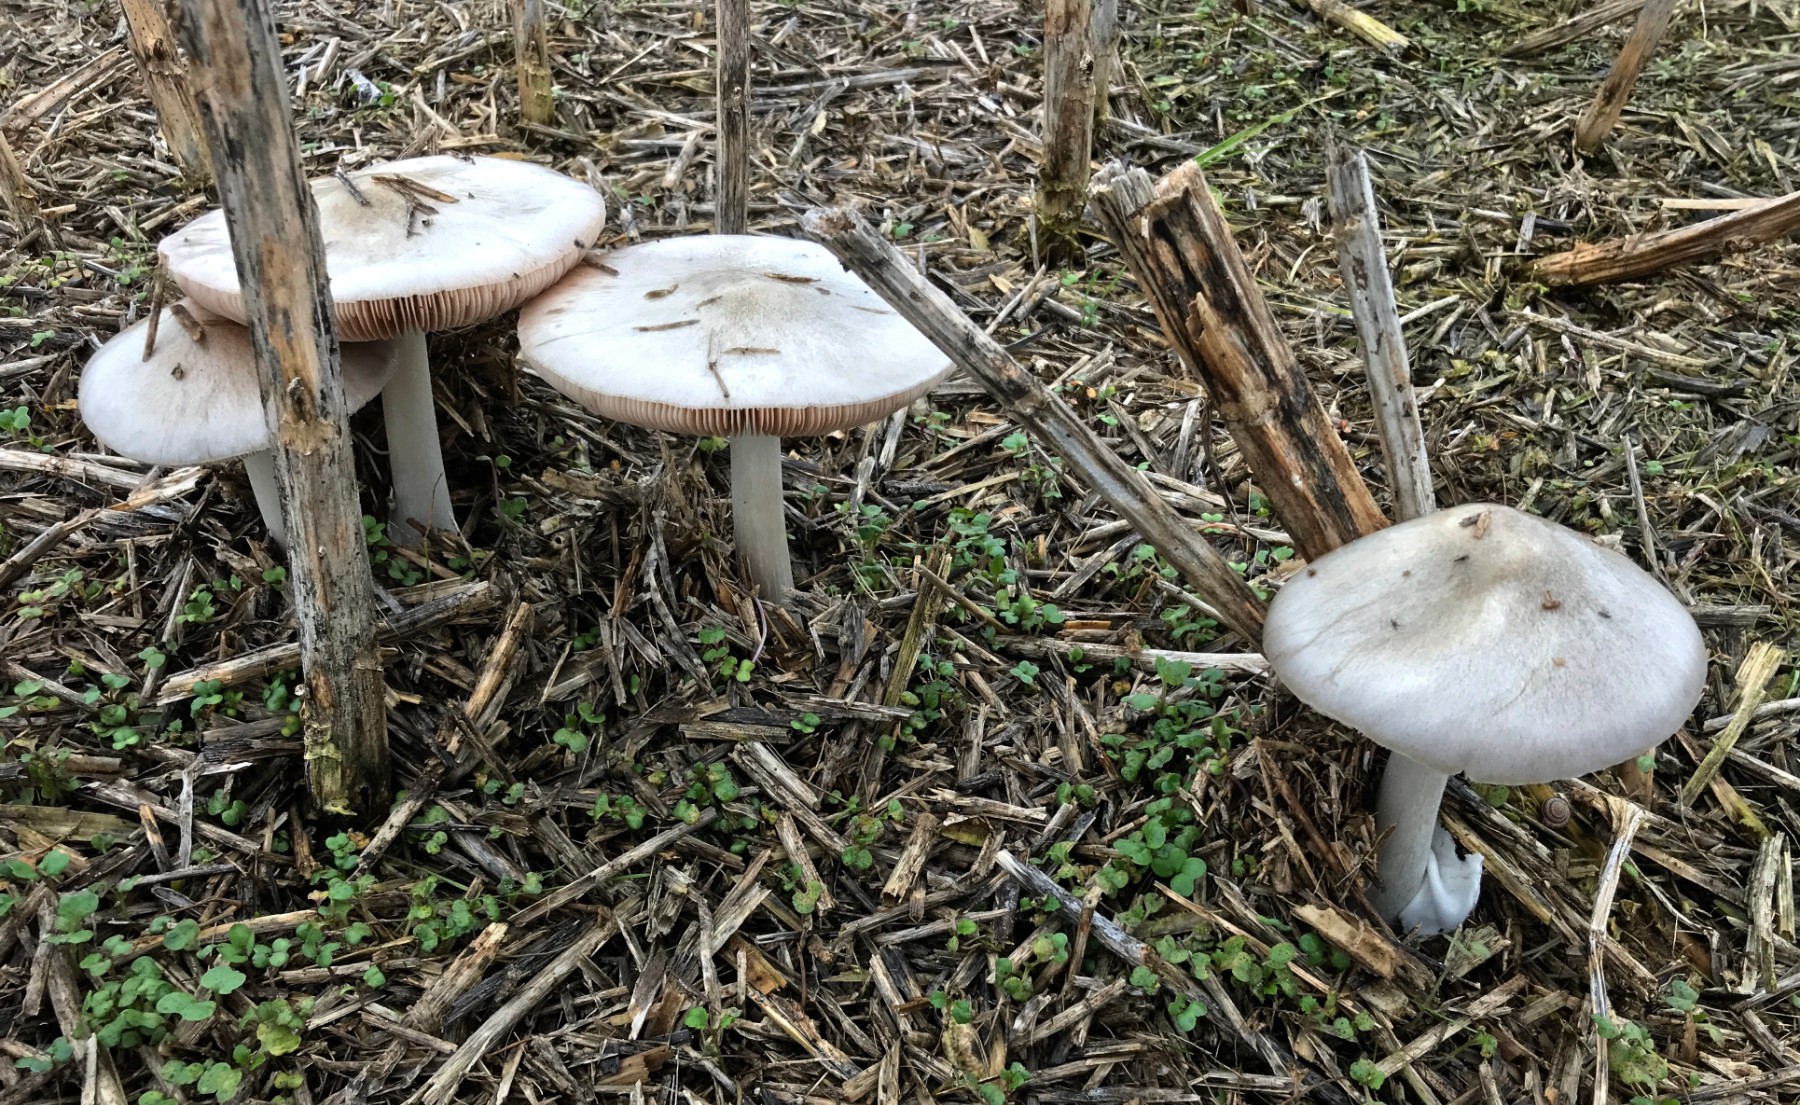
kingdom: Fungi
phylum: Basidiomycota
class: Agaricomycetes
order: Agaricales
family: Pluteaceae
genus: Volvopluteus
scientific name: Volvopluteus gloiocephalus
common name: høj posesvamp
